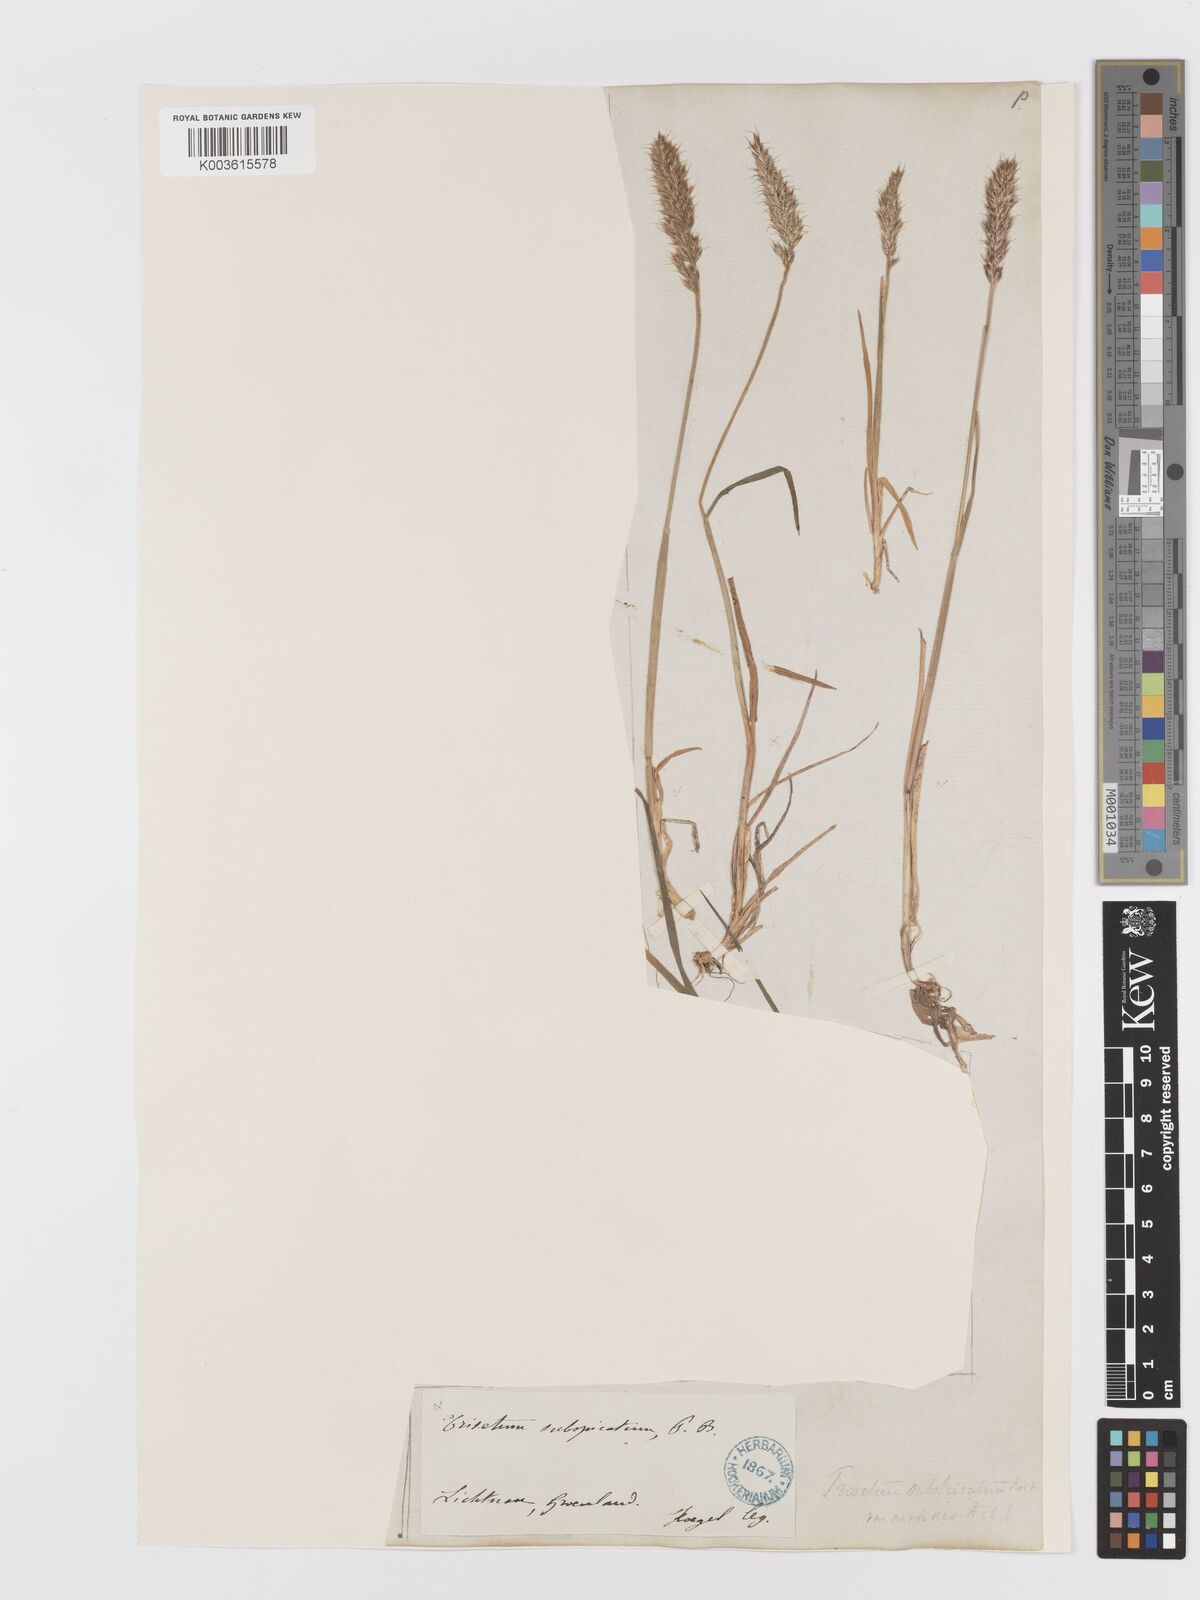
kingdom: Plantae
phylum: Tracheophyta
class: Liliopsida
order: Poales
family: Poaceae
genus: Koeleria
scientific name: Koeleria spicata
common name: Mountain trisetum
